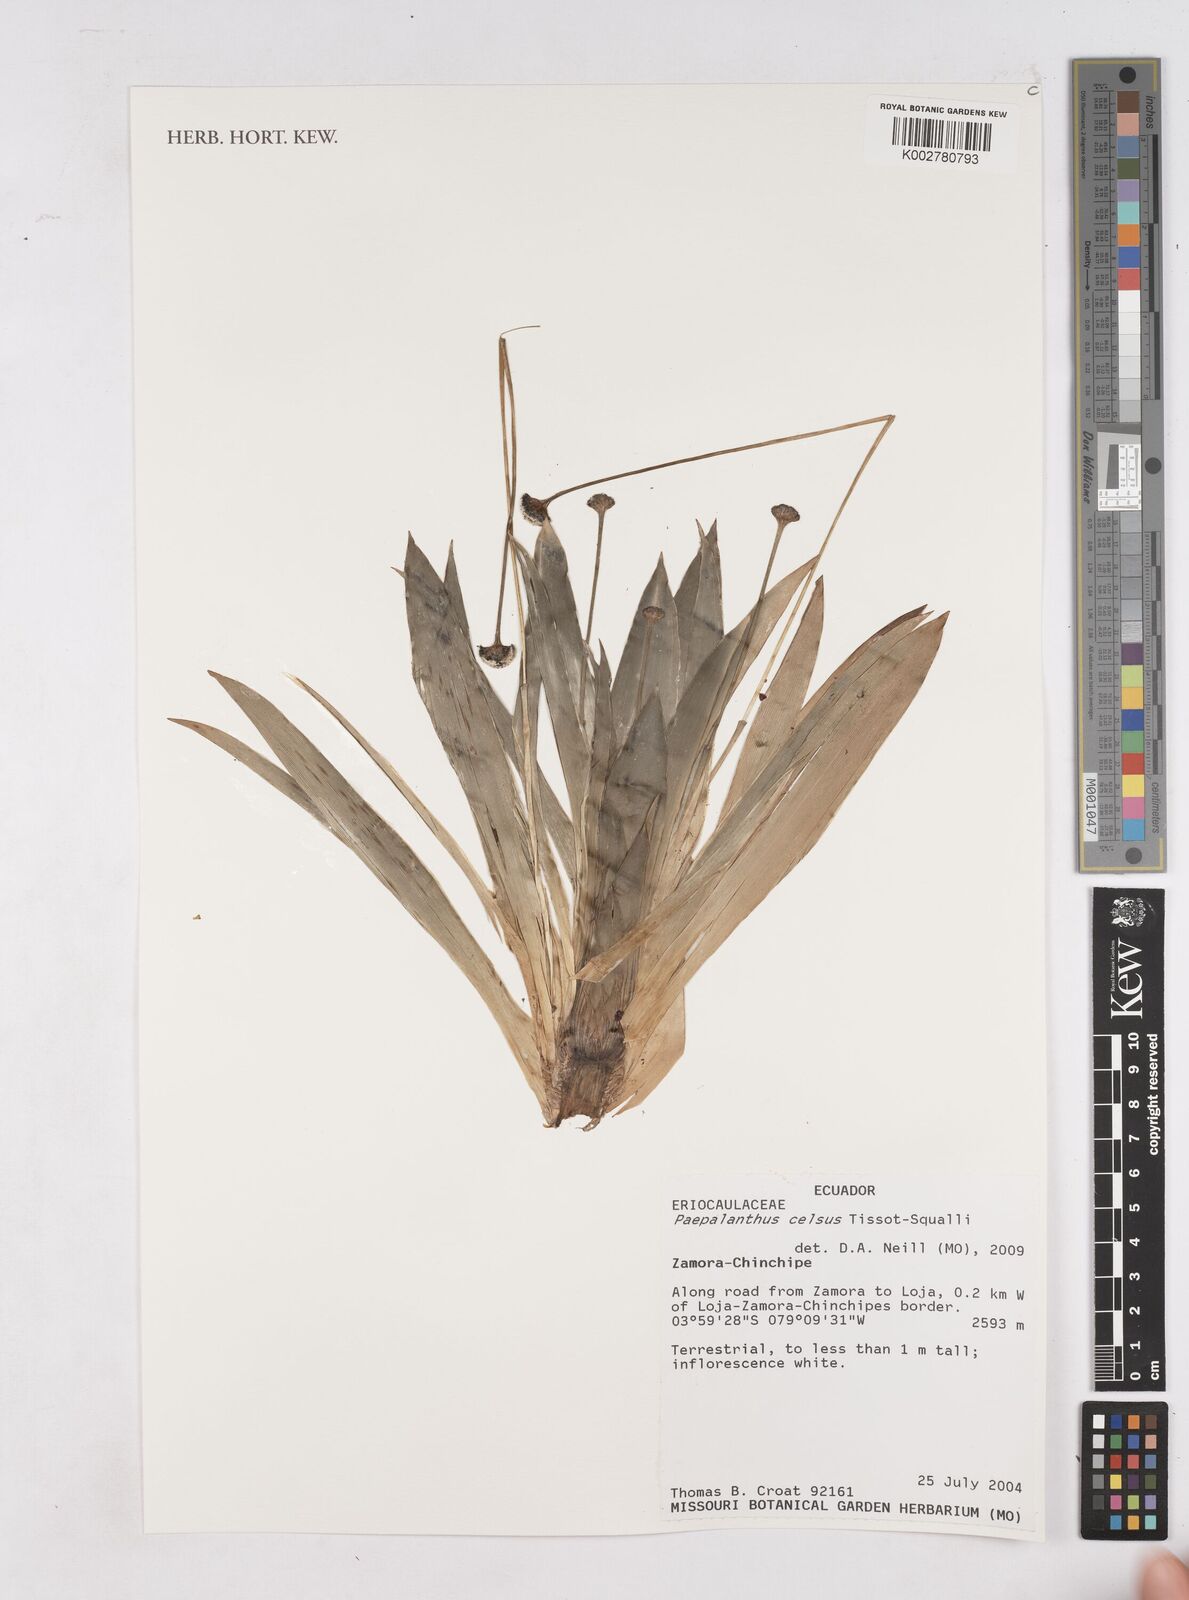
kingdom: Plantae
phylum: Tracheophyta
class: Liliopsida
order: Poales
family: Eriocaulaceae
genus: Paepalanthus
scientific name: Paepalanthus celsus
